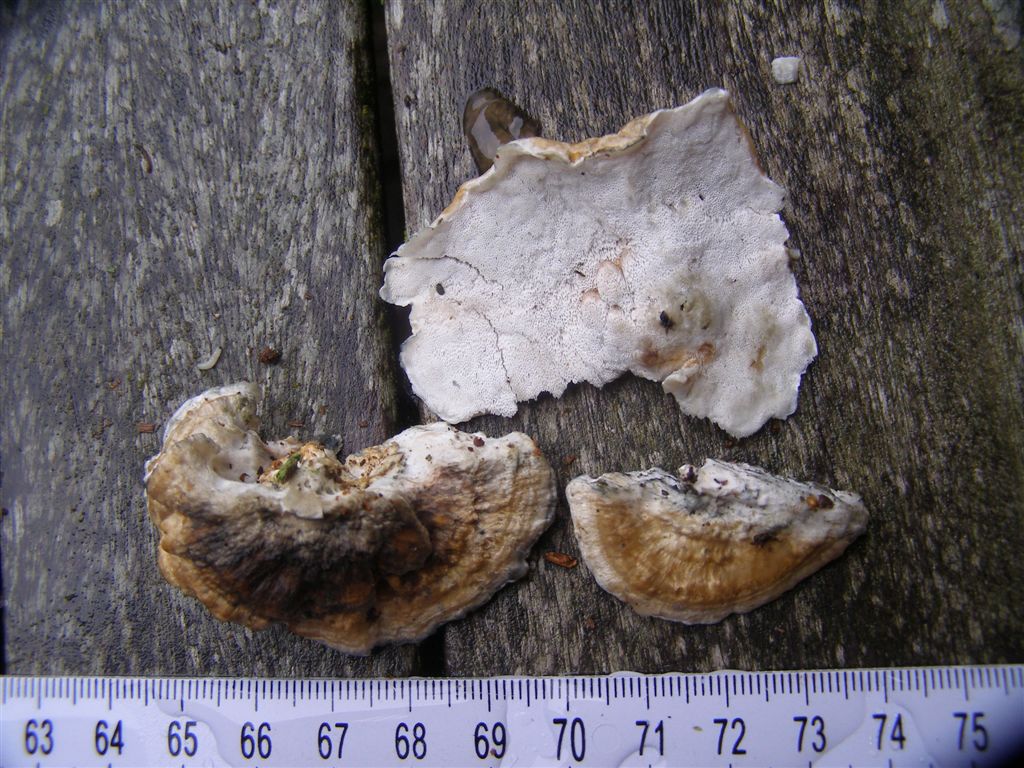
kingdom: Fungi
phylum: Basidiomycota
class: Agaricomycetes
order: Polyporales
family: Polyporaceae
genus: Cyanosporus
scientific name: Cyanosporus alni
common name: blegblå kødporesvamp
